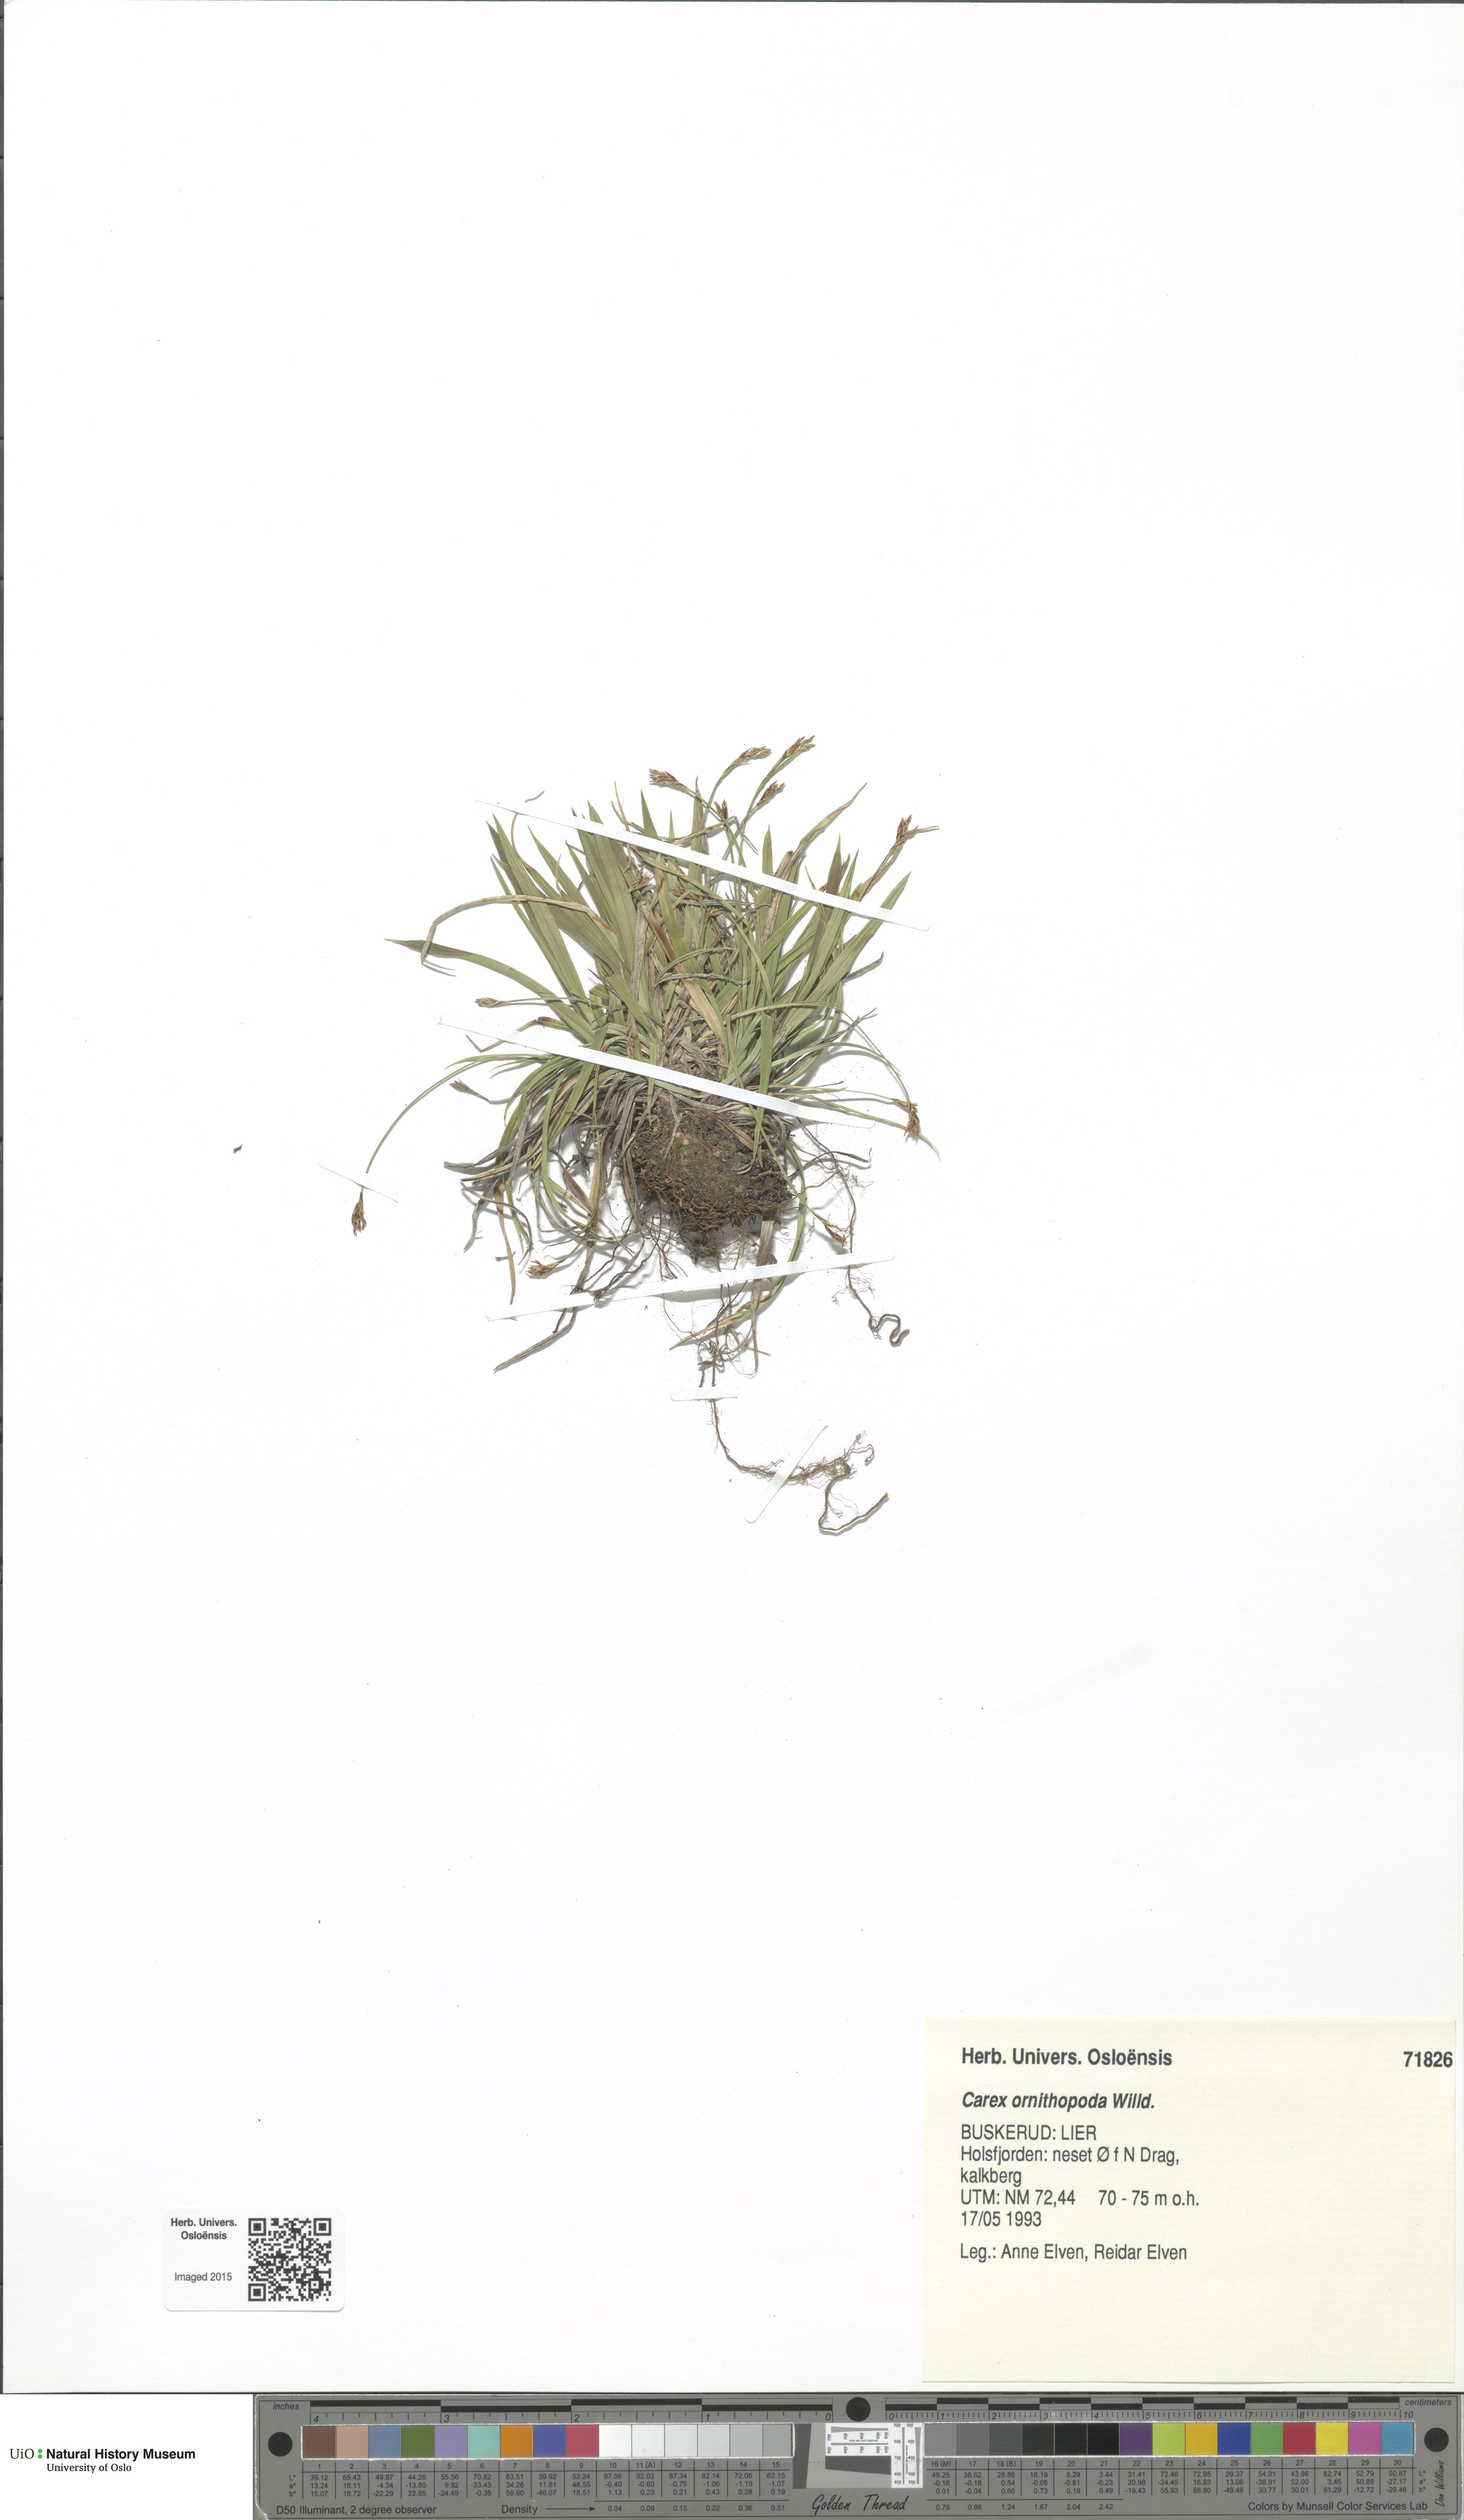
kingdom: Plantae
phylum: Tracheophyta
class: Liliopsida
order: Poales
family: Cyperaceae
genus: Carex
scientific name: Carex ornithopoda
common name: Bird's-foot sedge
